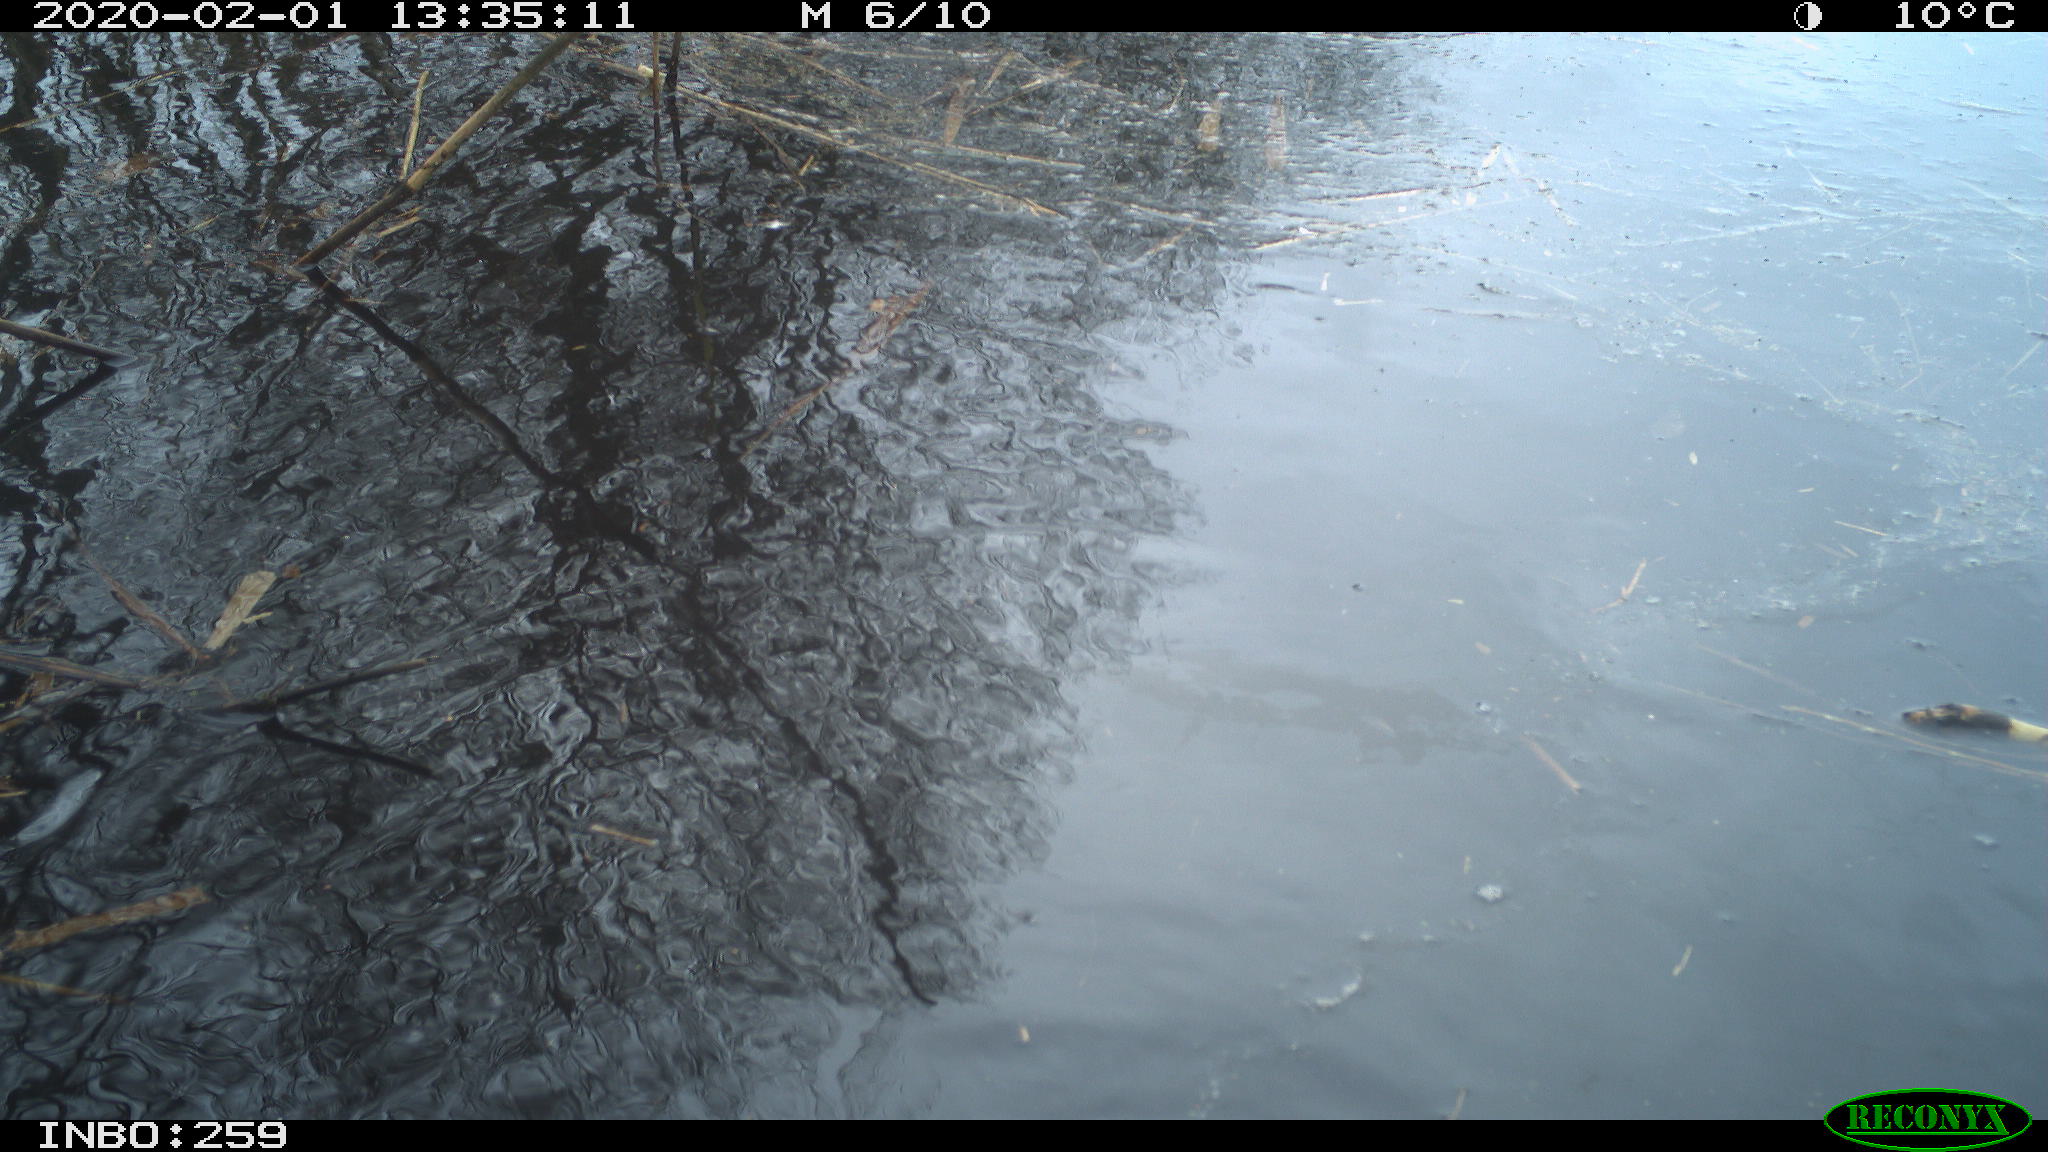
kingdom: Animalia
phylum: Chordata
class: Aves
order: Gruiformes
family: Rallidae
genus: Gallinula
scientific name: Gallinula chloropus
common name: Common moorhen
